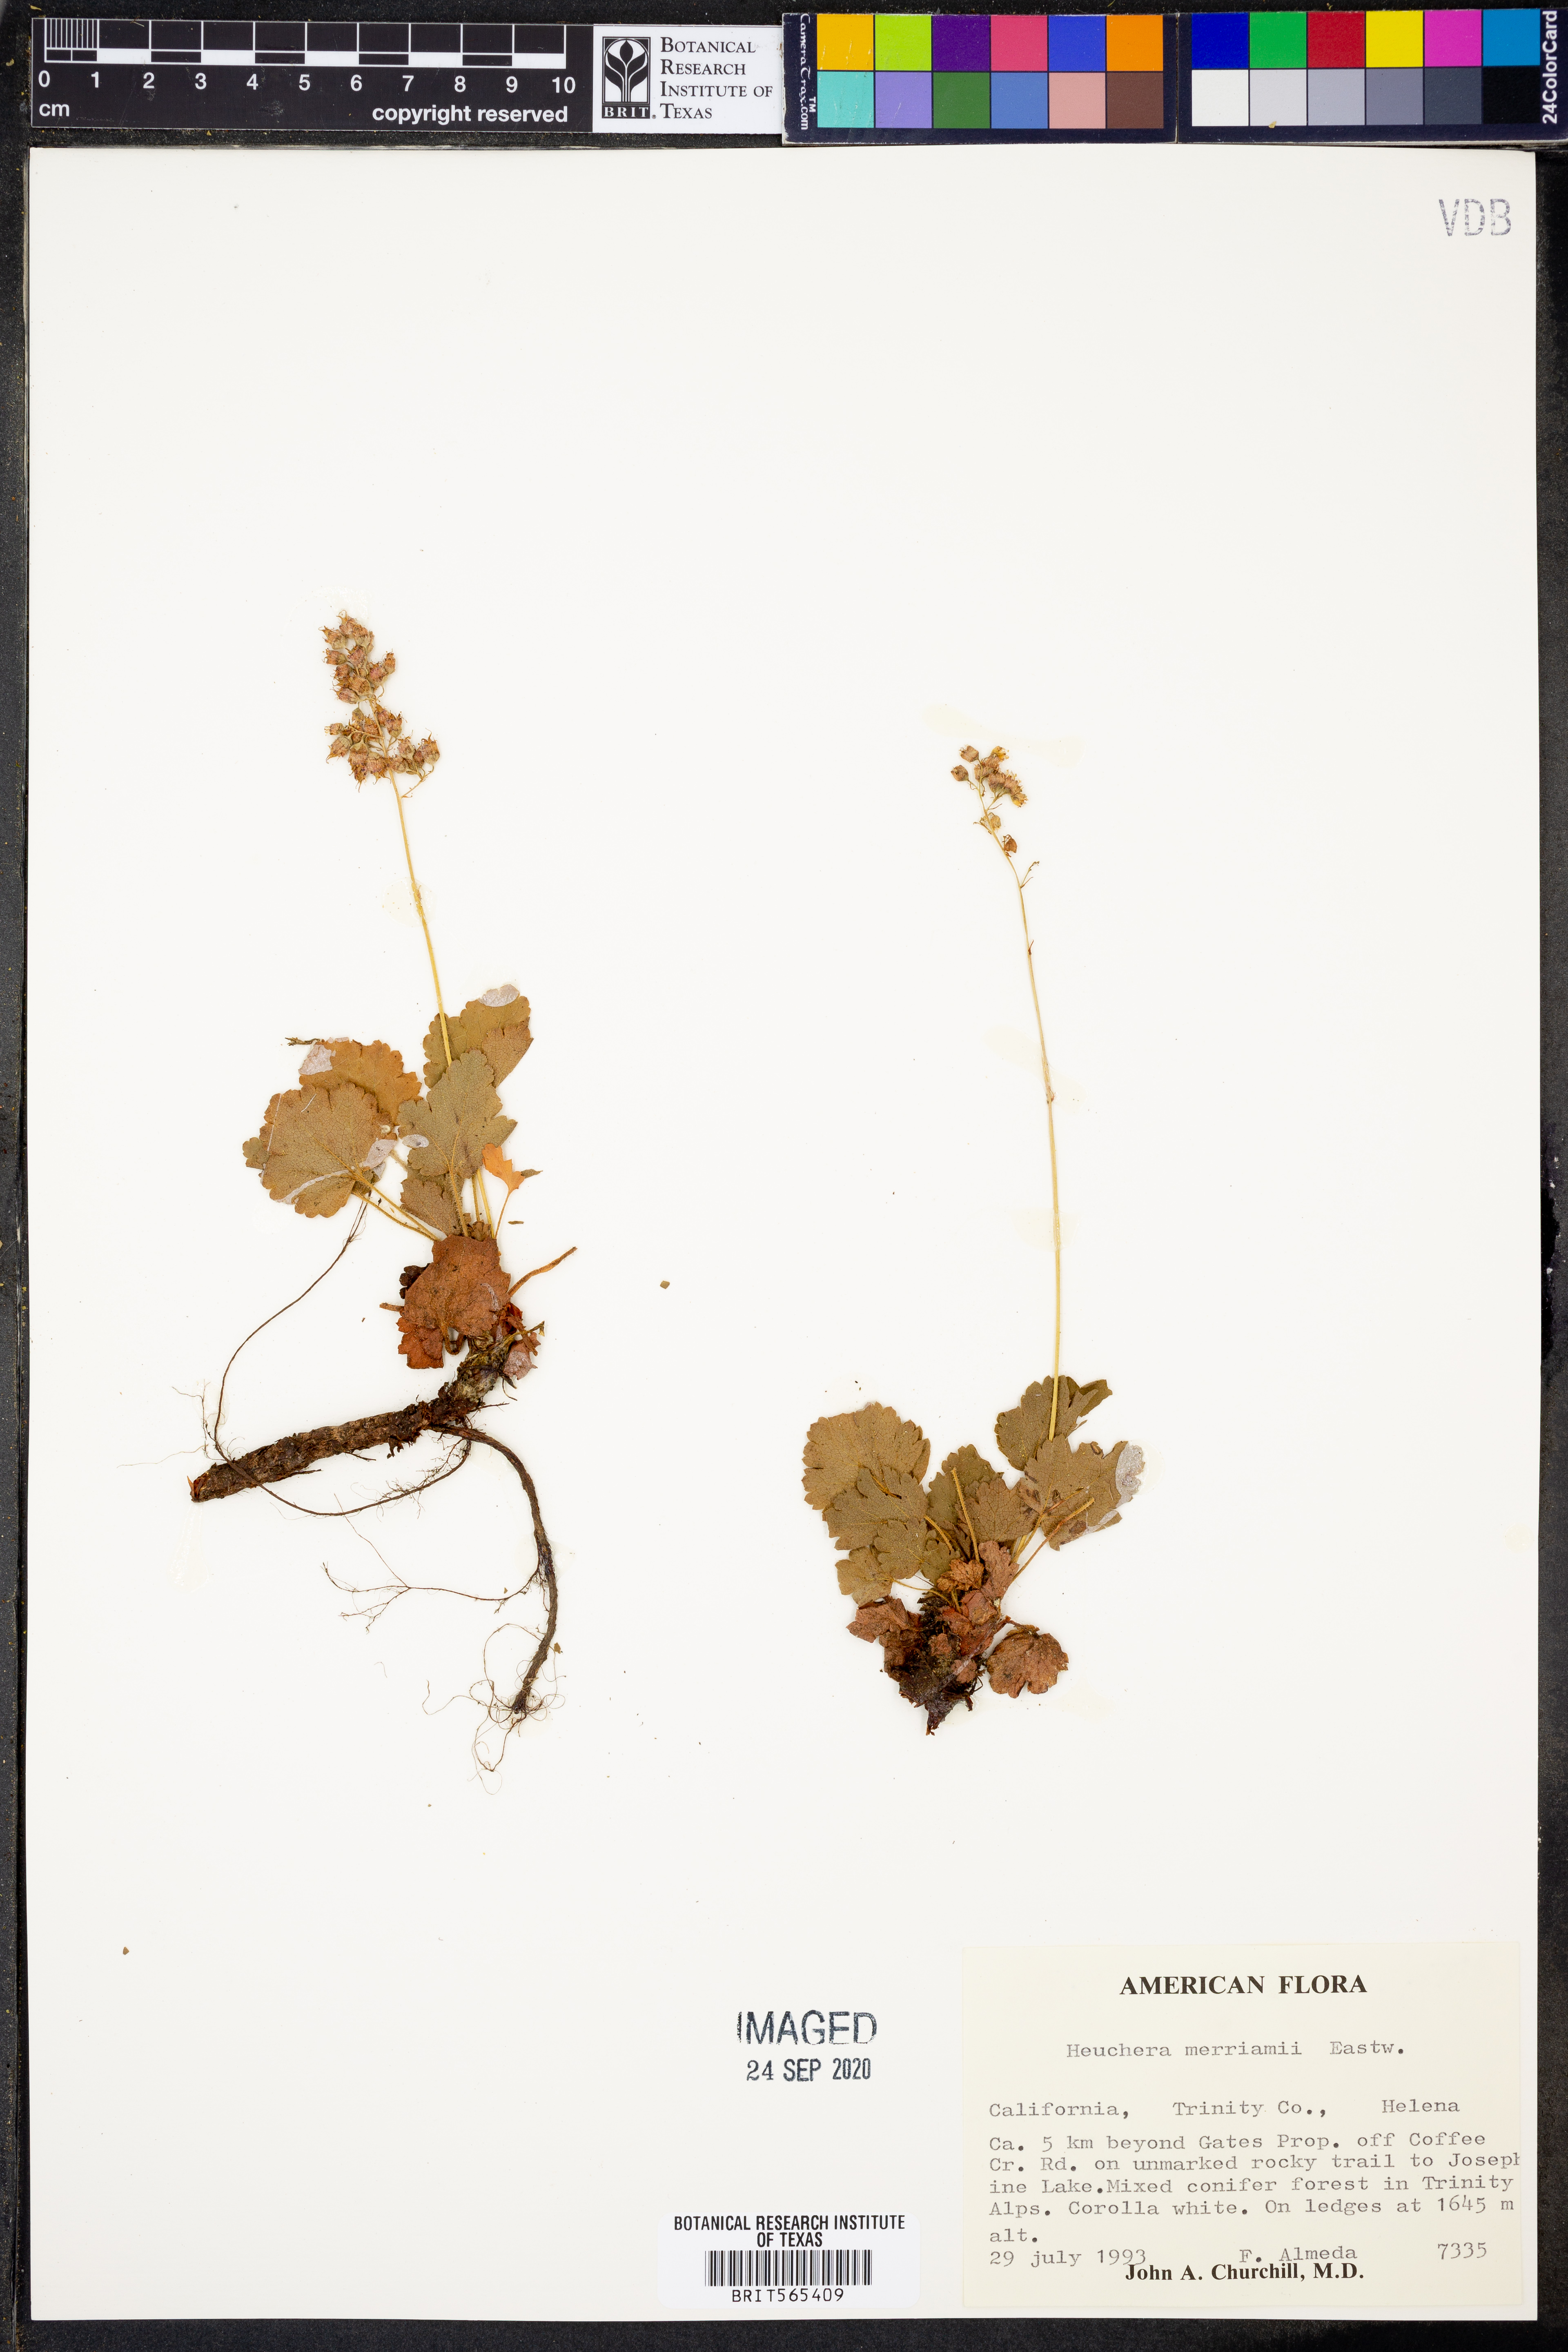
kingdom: Plantae
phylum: Tracheophyta
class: Magnoliopsida
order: Saxifragales
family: Saxifragaceae
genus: Heuchera
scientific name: Heuchera merriamii
